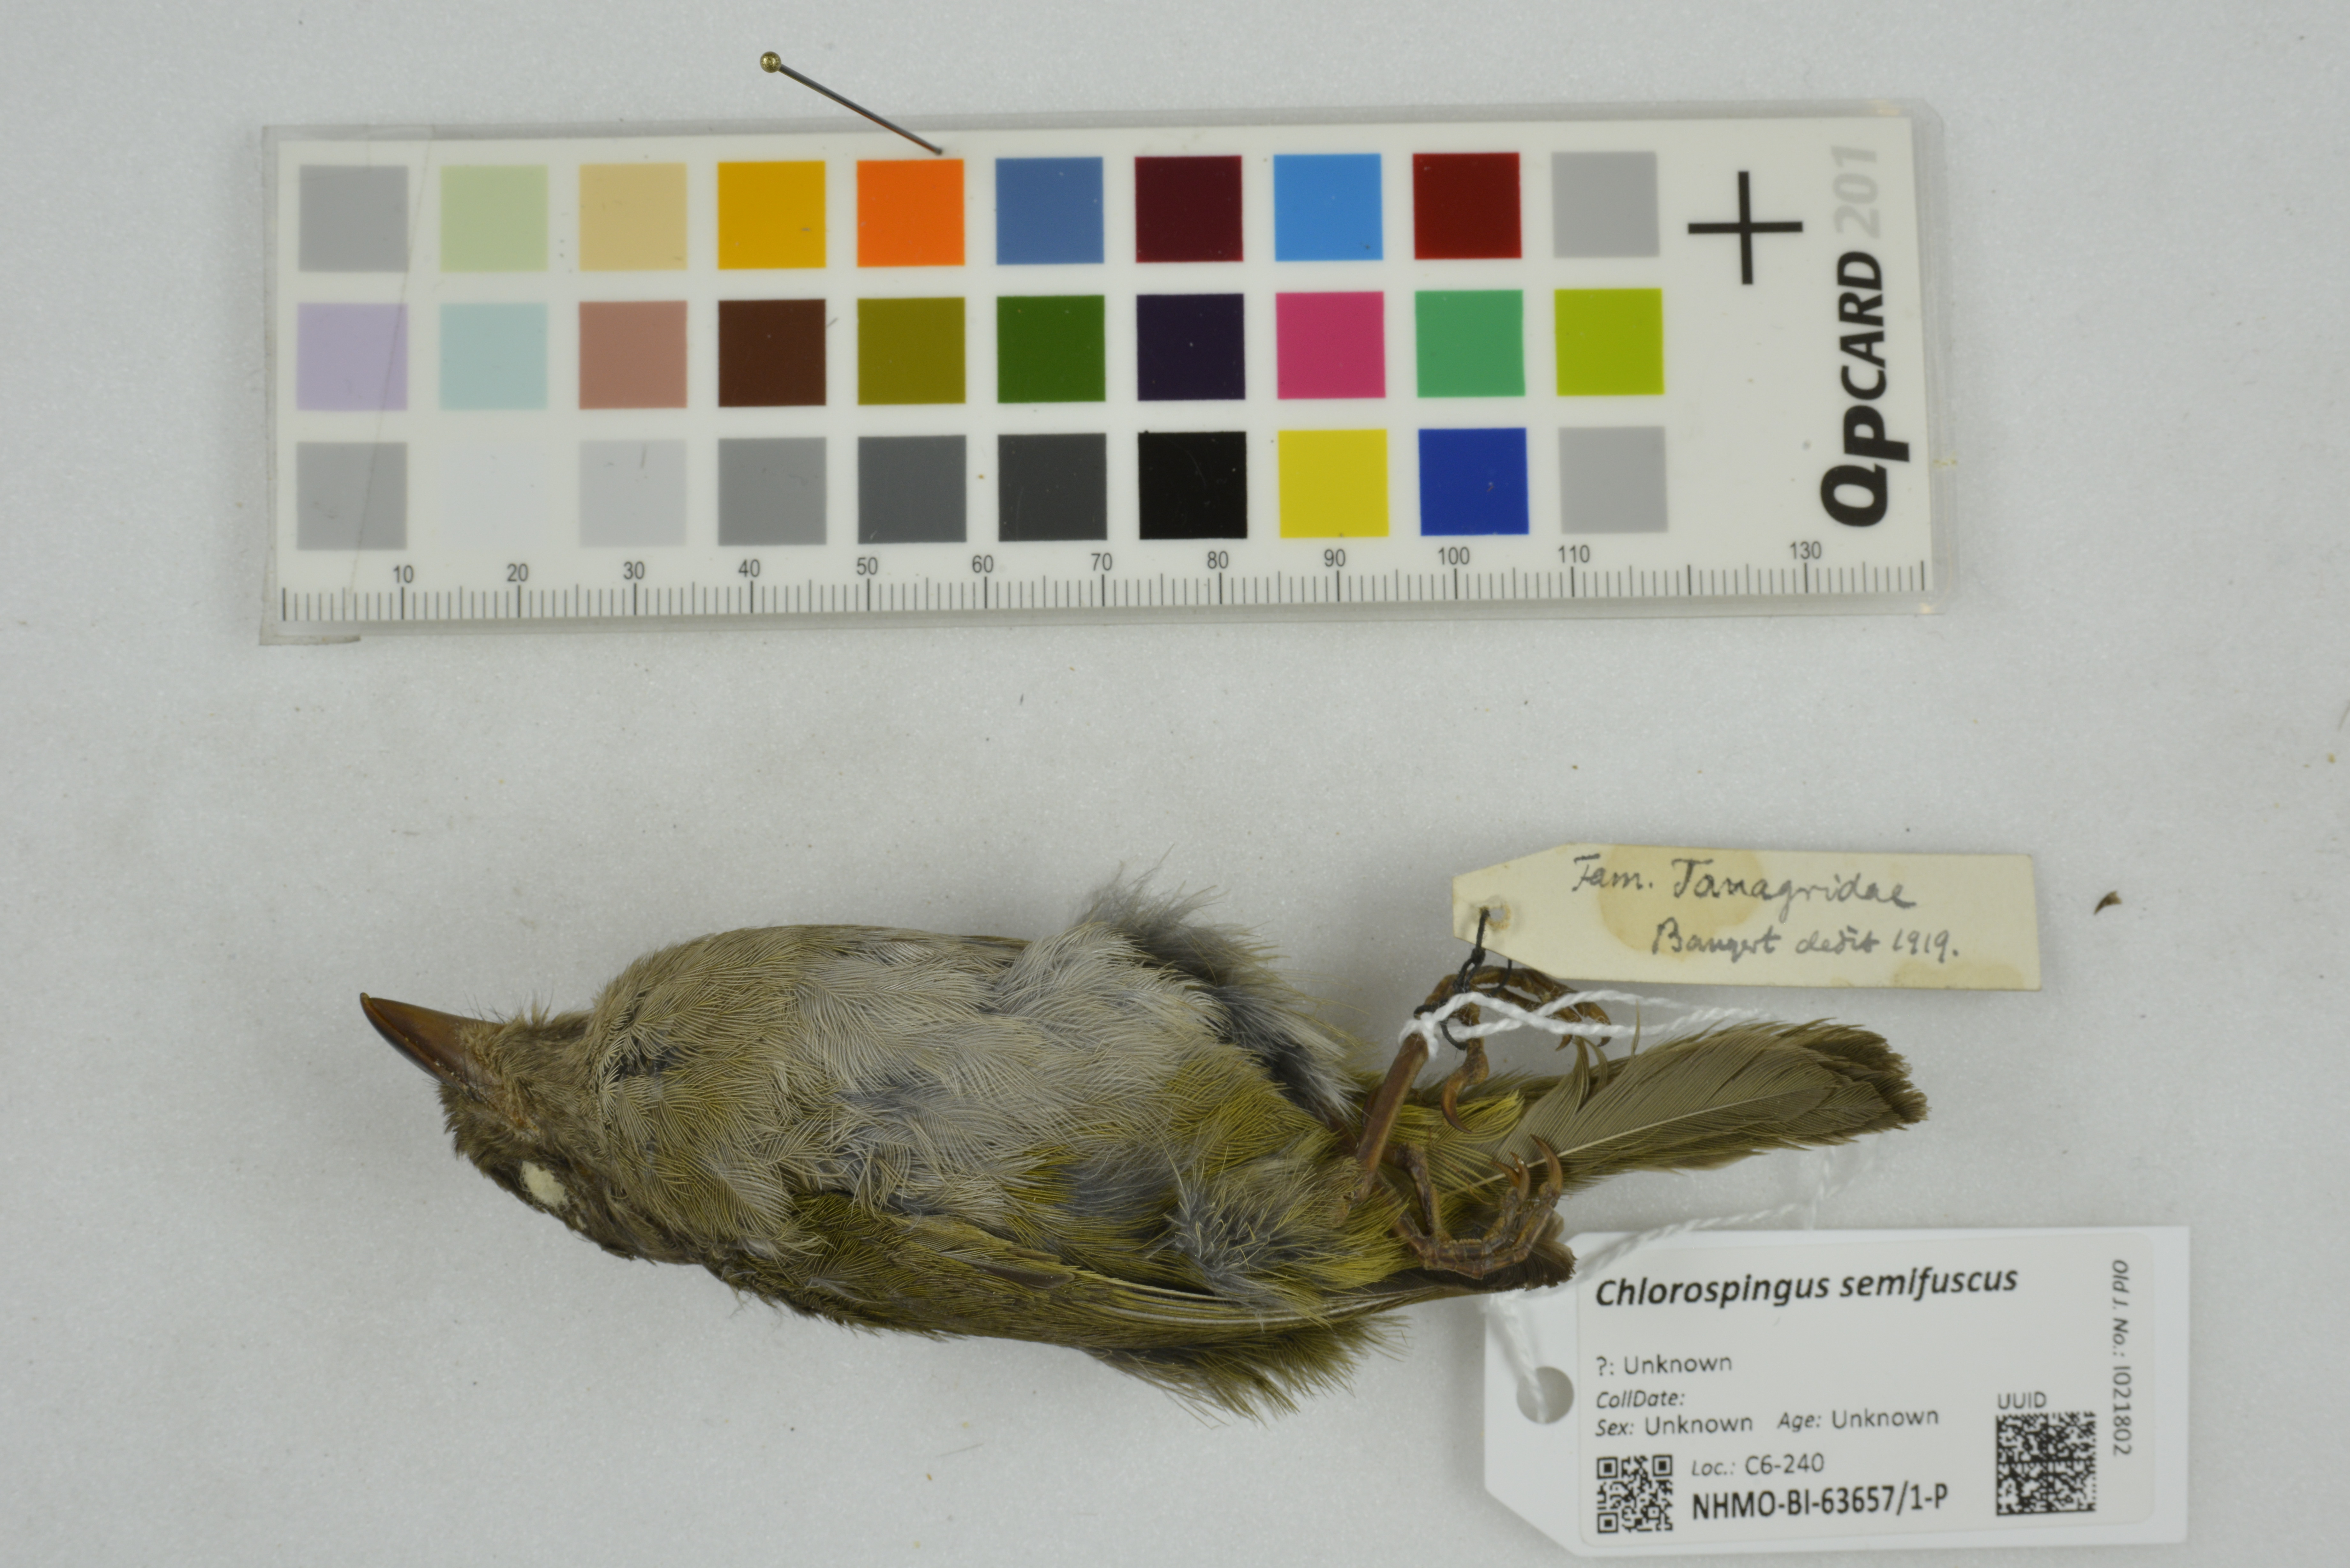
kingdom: Animalia
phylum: Chordata
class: Aves
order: Passeriformes
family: Passerellidae
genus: Chlorospingus
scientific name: Chlorospingus semifuscus
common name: Dusky bush-tanager
